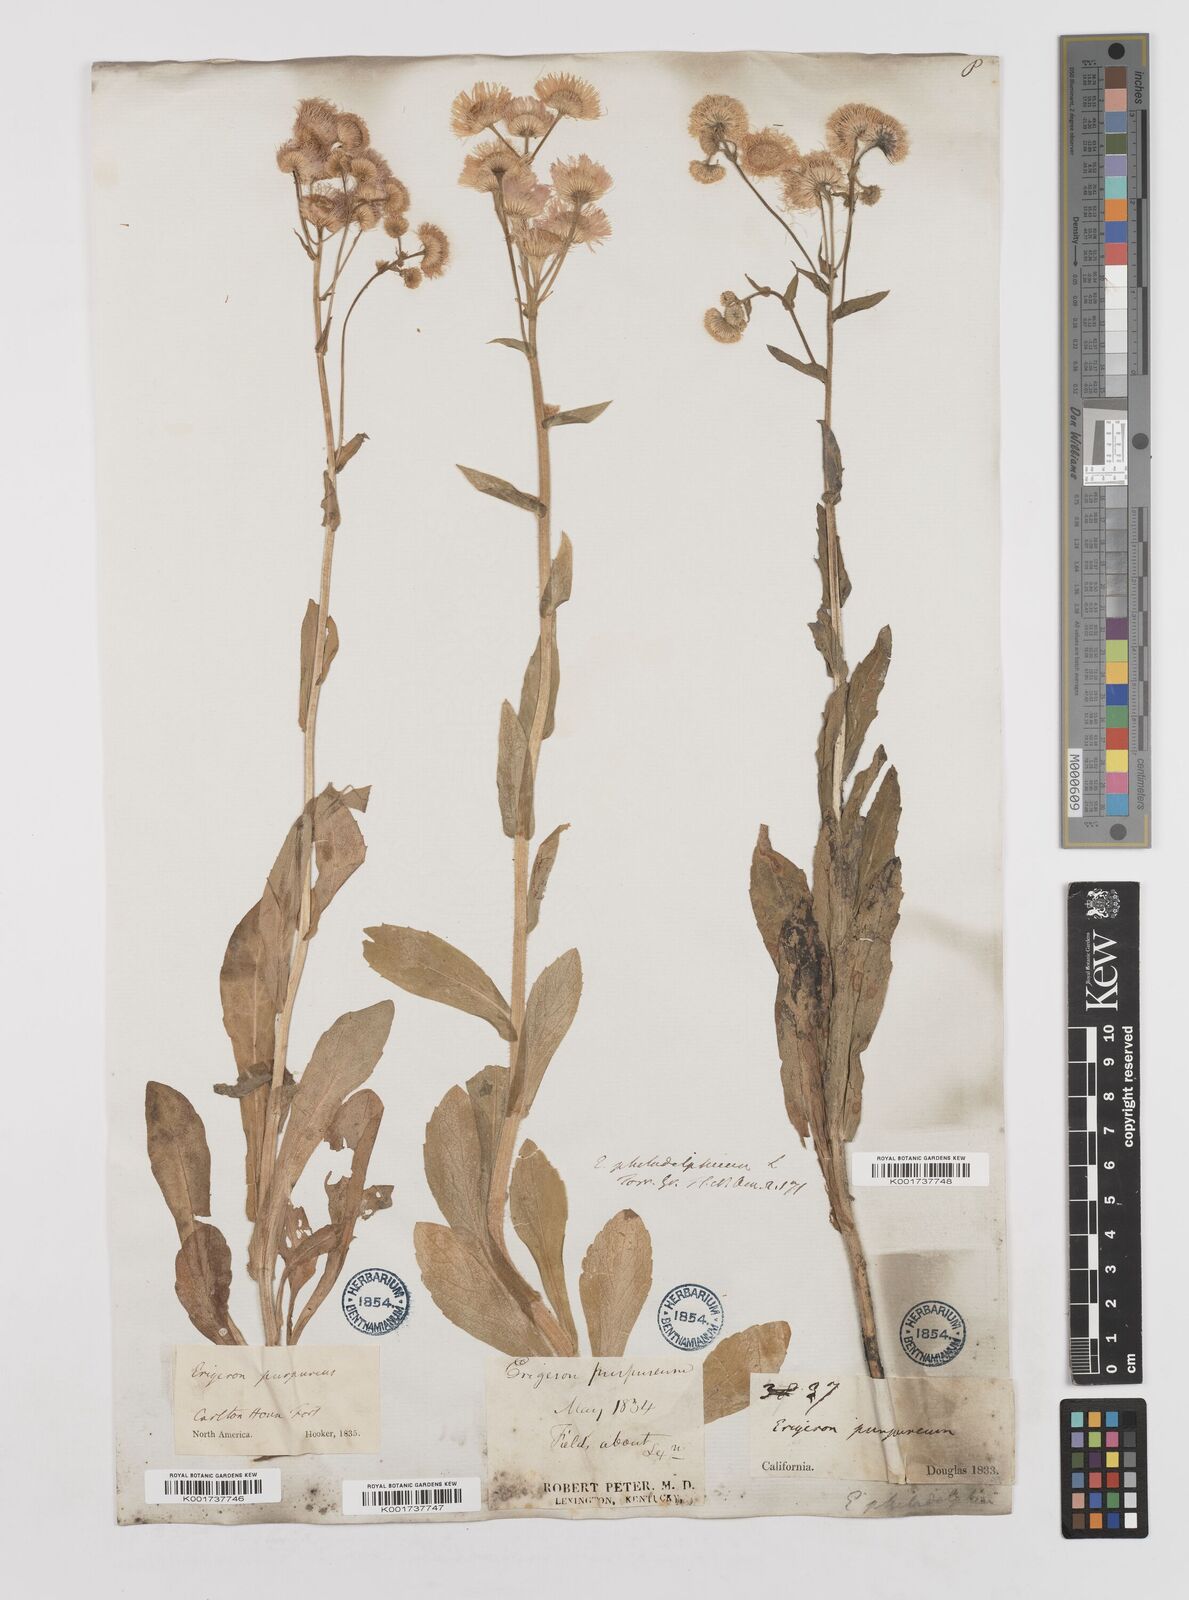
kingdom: Plantae
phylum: Tracheophyta
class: Magnoliopsida
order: Asterales
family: Asteraceae
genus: Erigeron
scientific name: Erigeron philadelphicus
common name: Robin's-plantain
